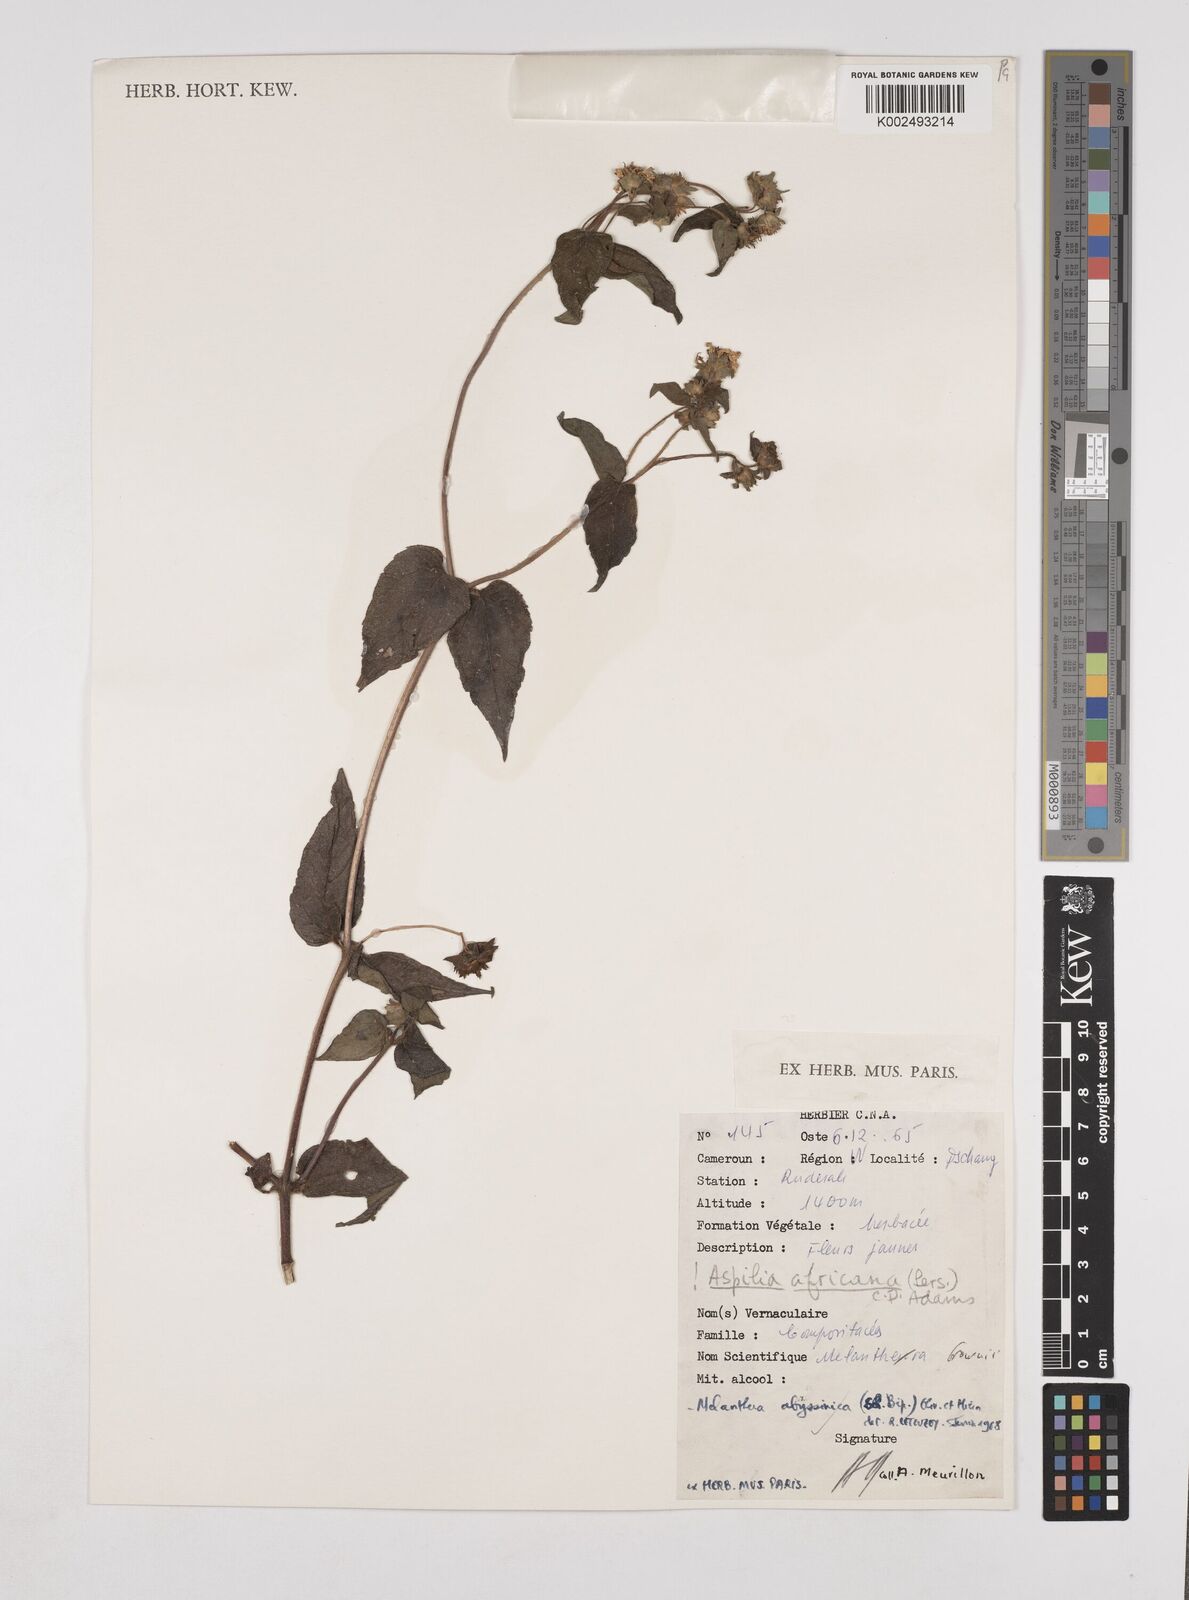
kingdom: Plantae
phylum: Tracheophyta
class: Magnoliopsida
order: Asterales
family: Asteraceae
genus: Lipotriche
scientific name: Lipotriche abyssinica
